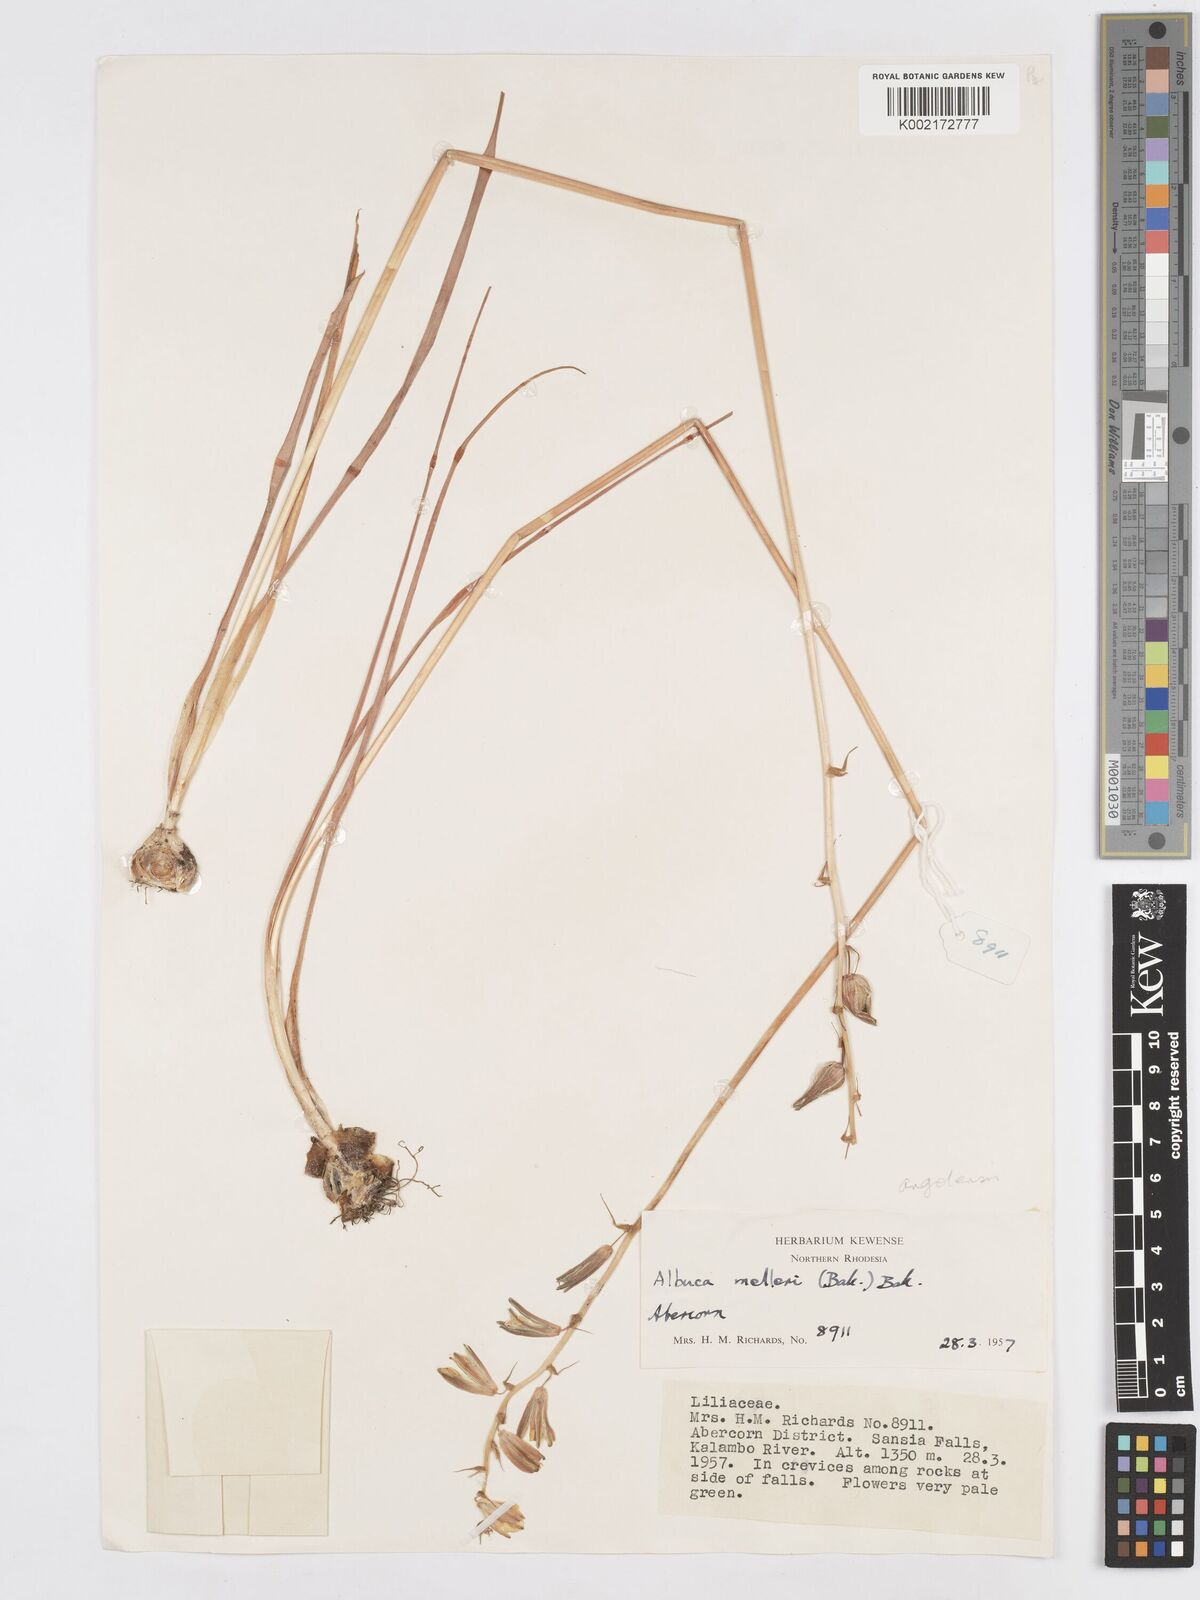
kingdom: Plantae
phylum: Tracheophyta
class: Liliopsida
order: Asparagales
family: Asparagaceae
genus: Albuca
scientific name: Albuca
